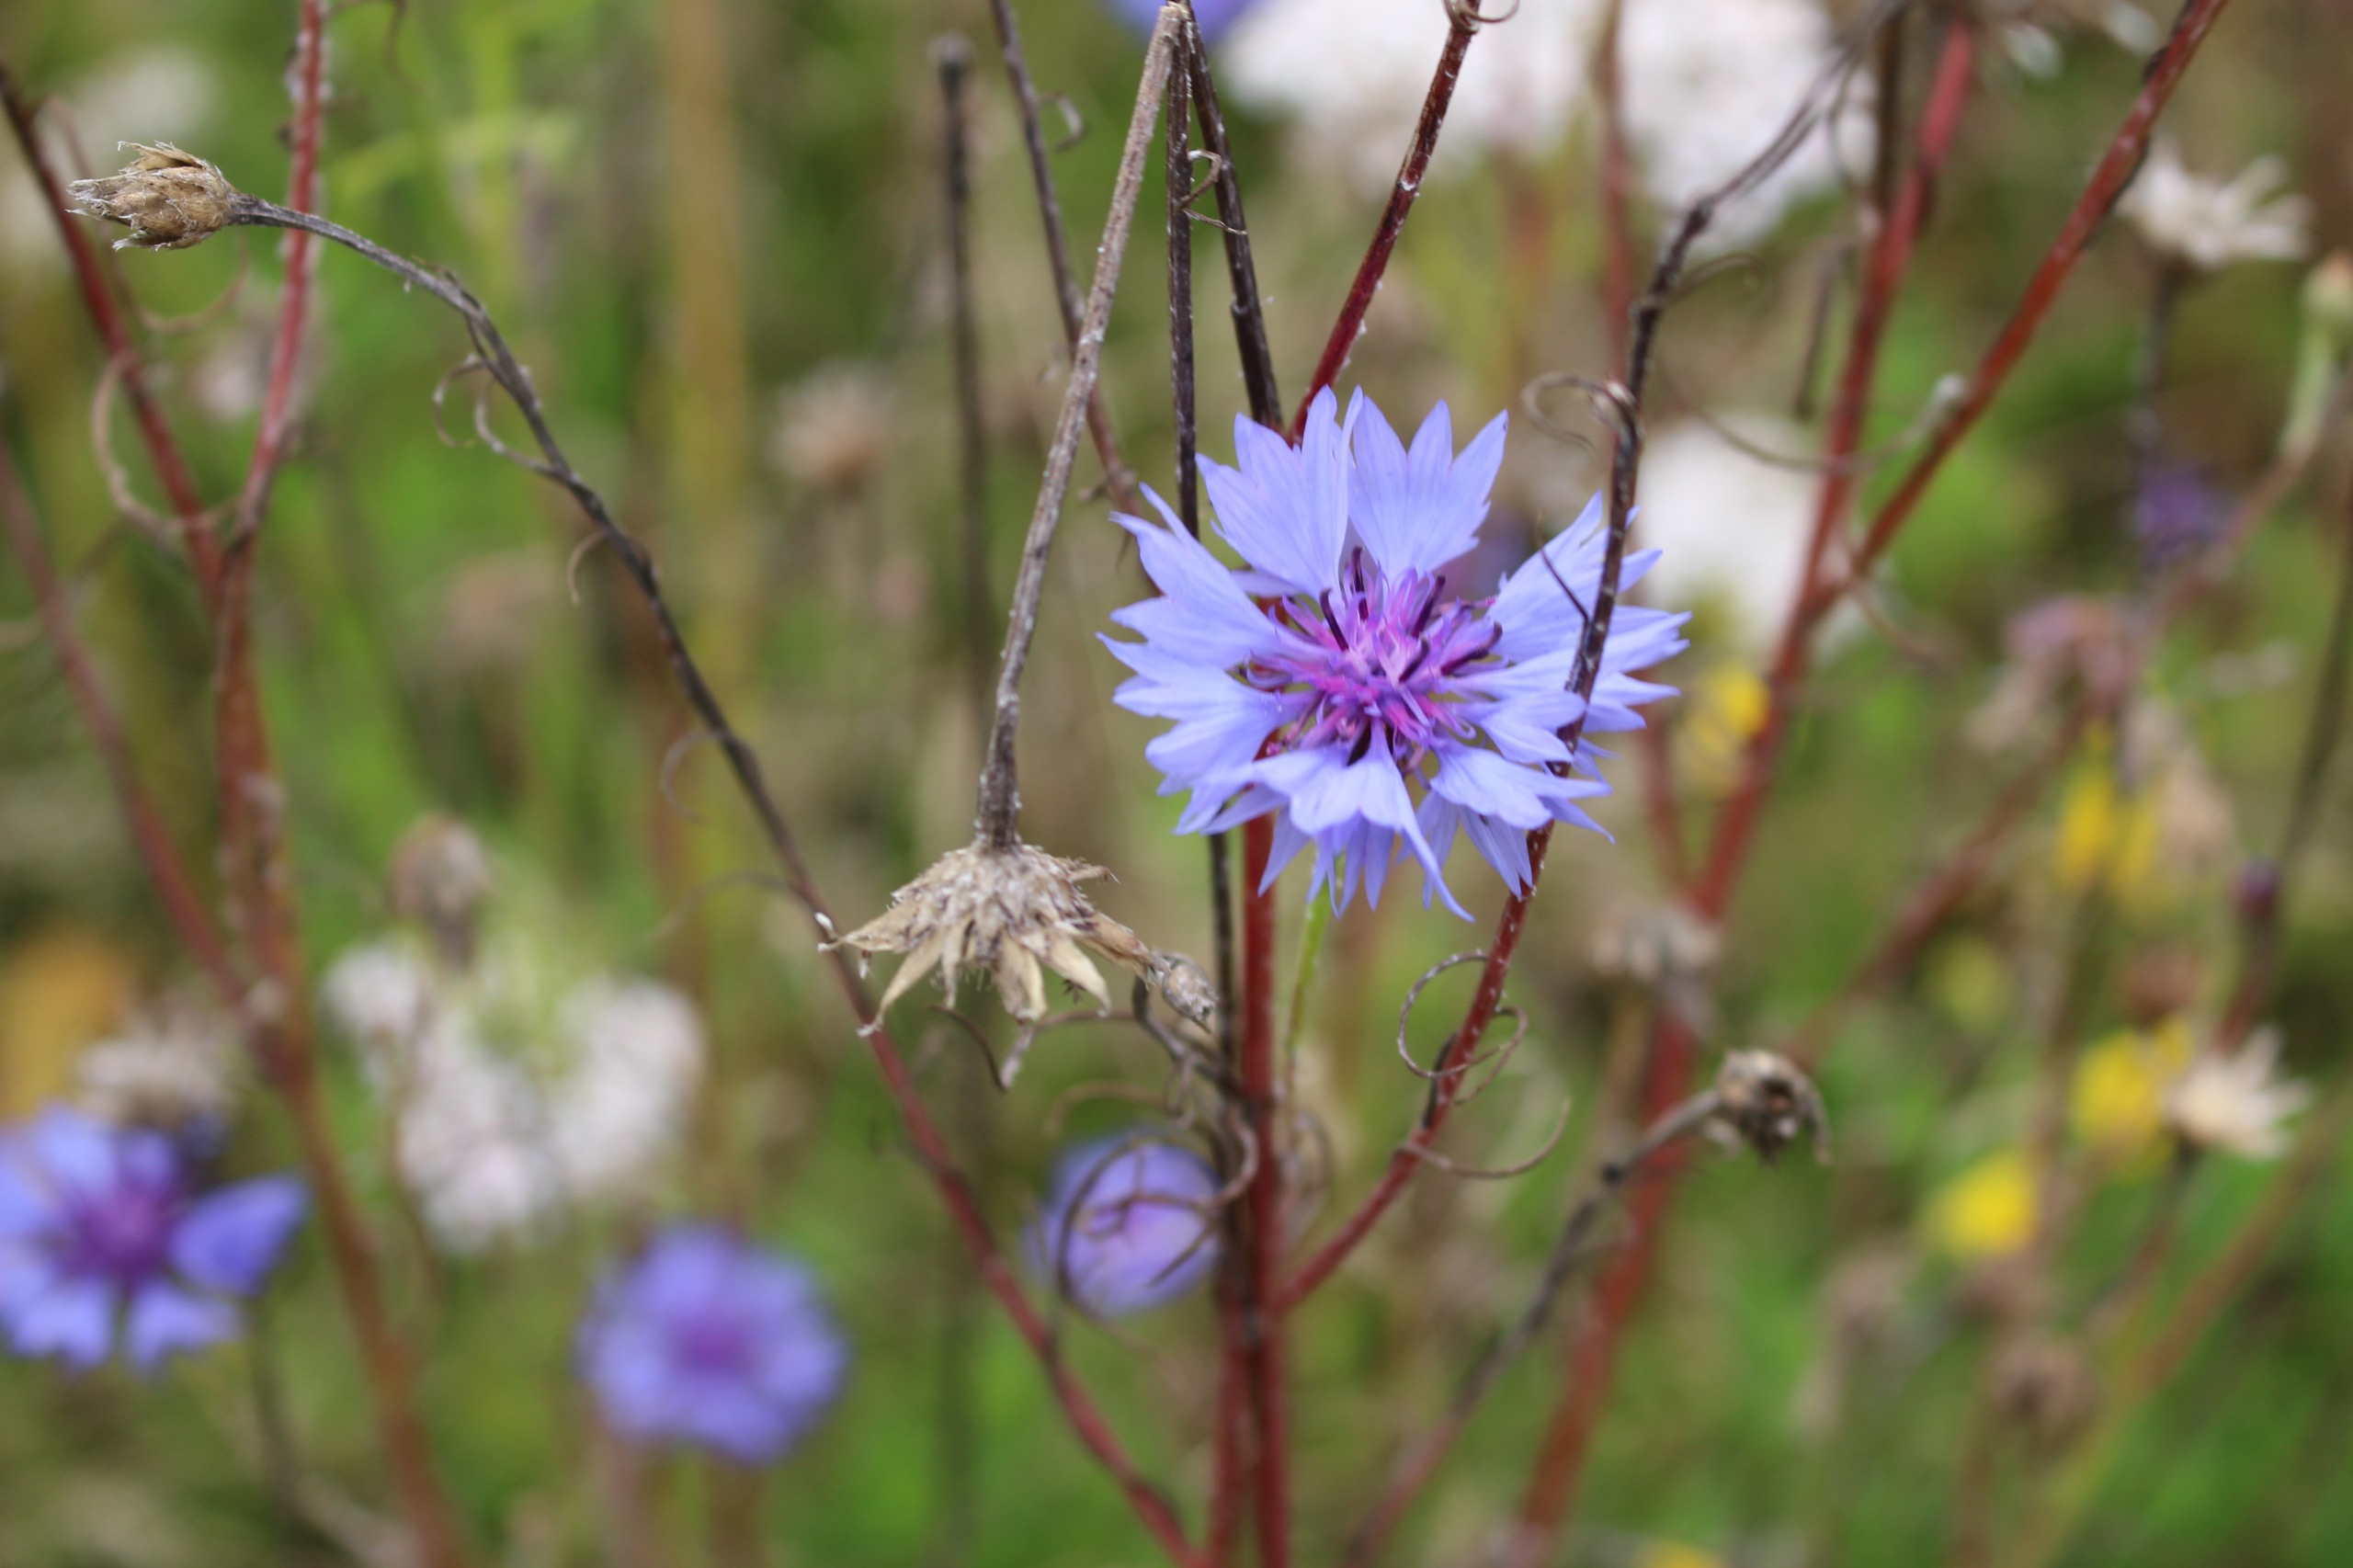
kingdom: Plantae
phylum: Tracheophyta
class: Magnoliopsida
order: Asterales
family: Asteraceae
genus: Centaurea
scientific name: Centaurea cyanus
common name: Kornblomst
